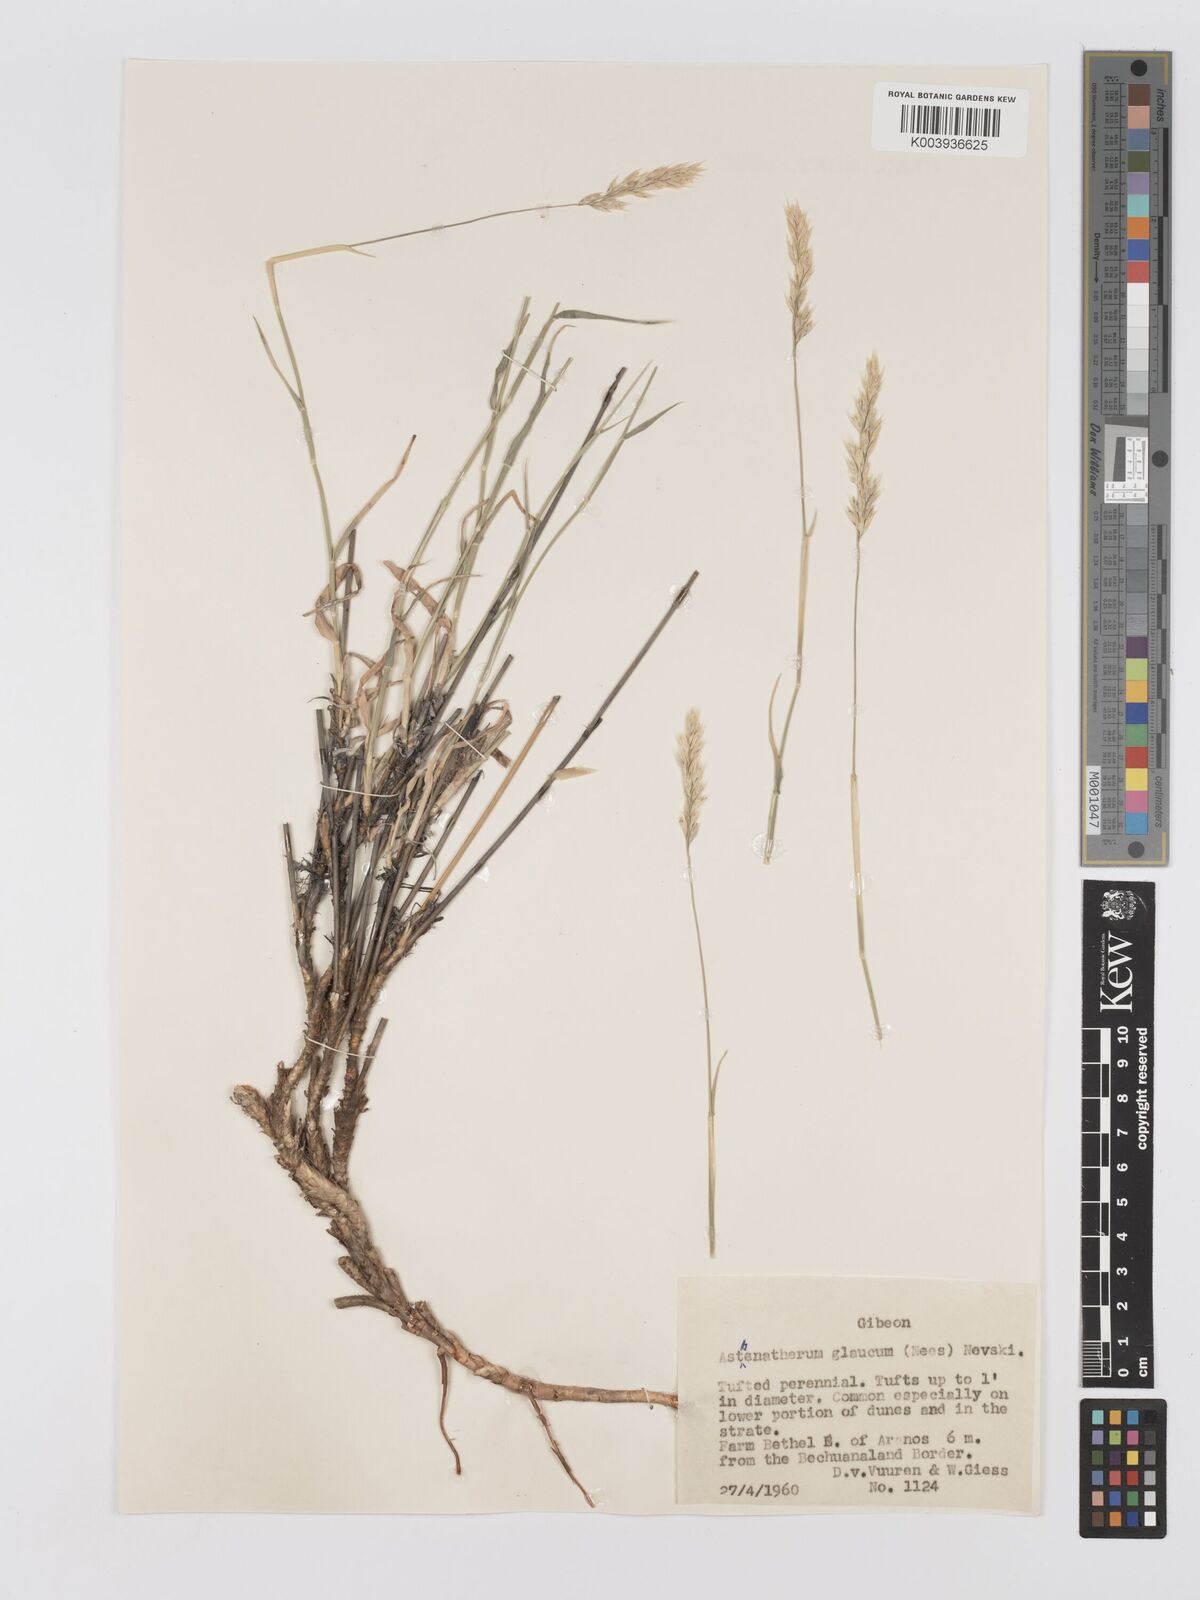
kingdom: Plantae
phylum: Tracheophyta
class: Liliopsida
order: Poales
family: Poaceae
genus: Centropodia
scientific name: Centropodia glauca
